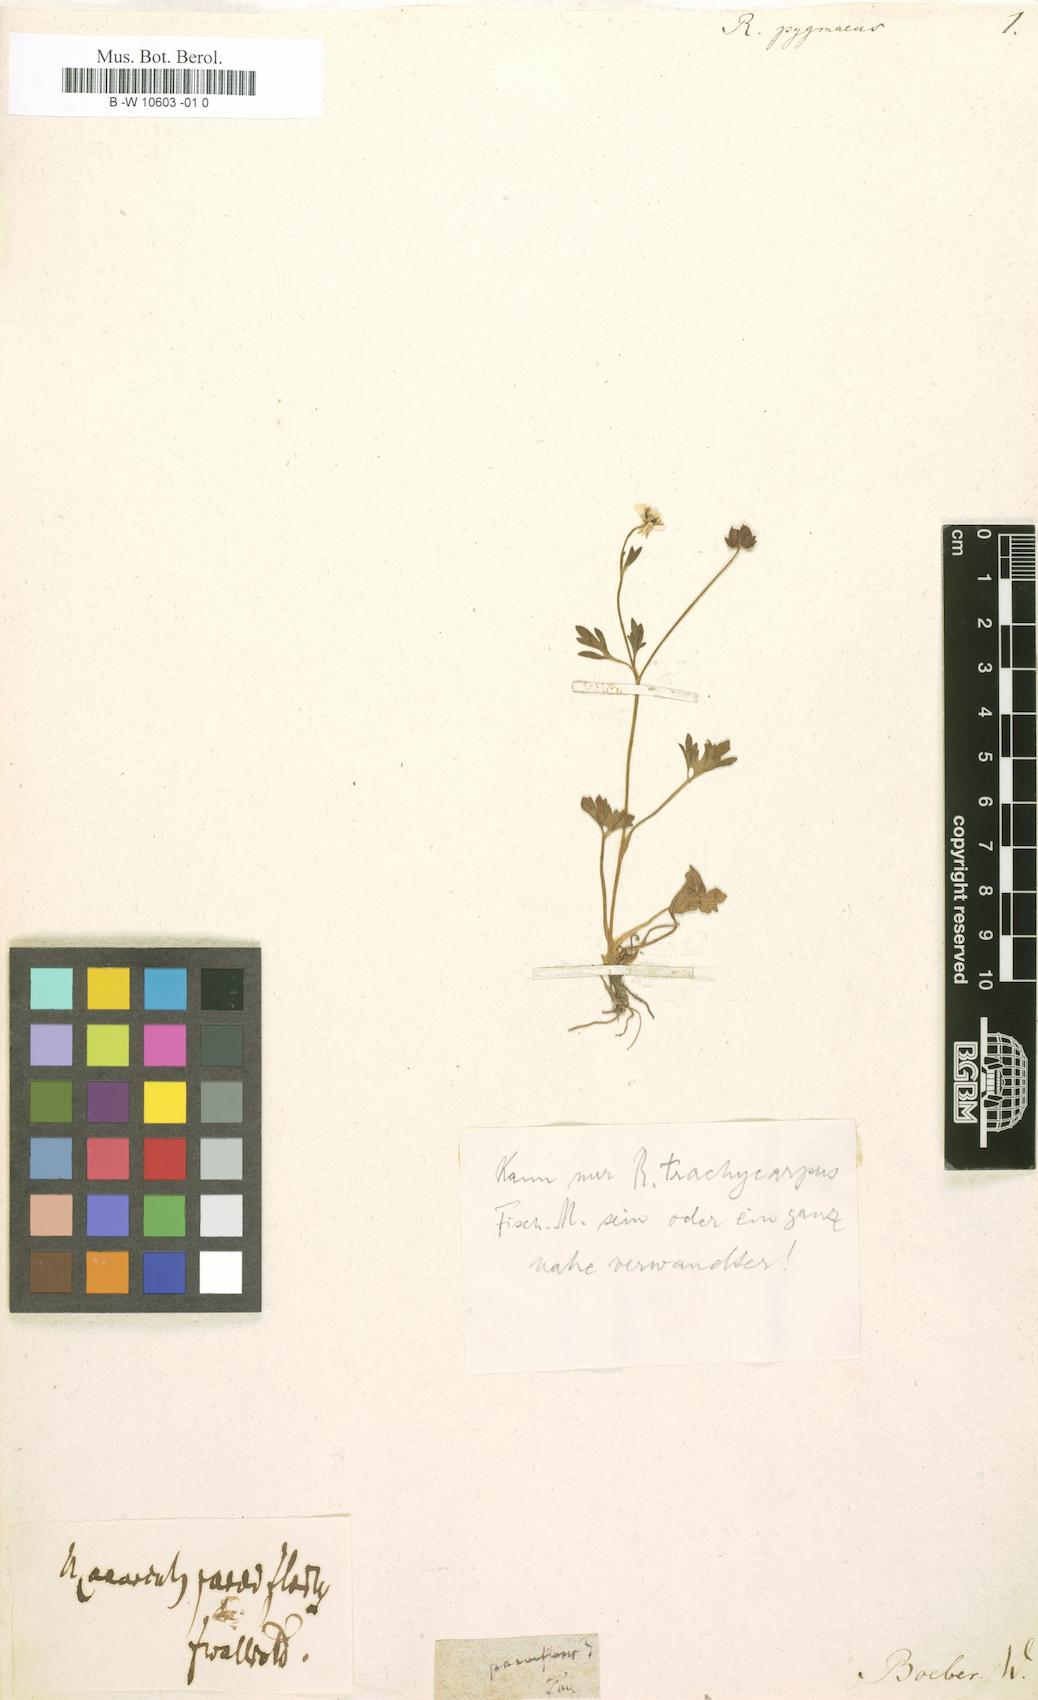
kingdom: Plantae
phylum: Tracheophyta
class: Magnoliopsida
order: Ranunculales
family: Ranunculaceae
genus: Ranunculus
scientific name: Ranunculus pygmaeus
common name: Dwarf buttercup
